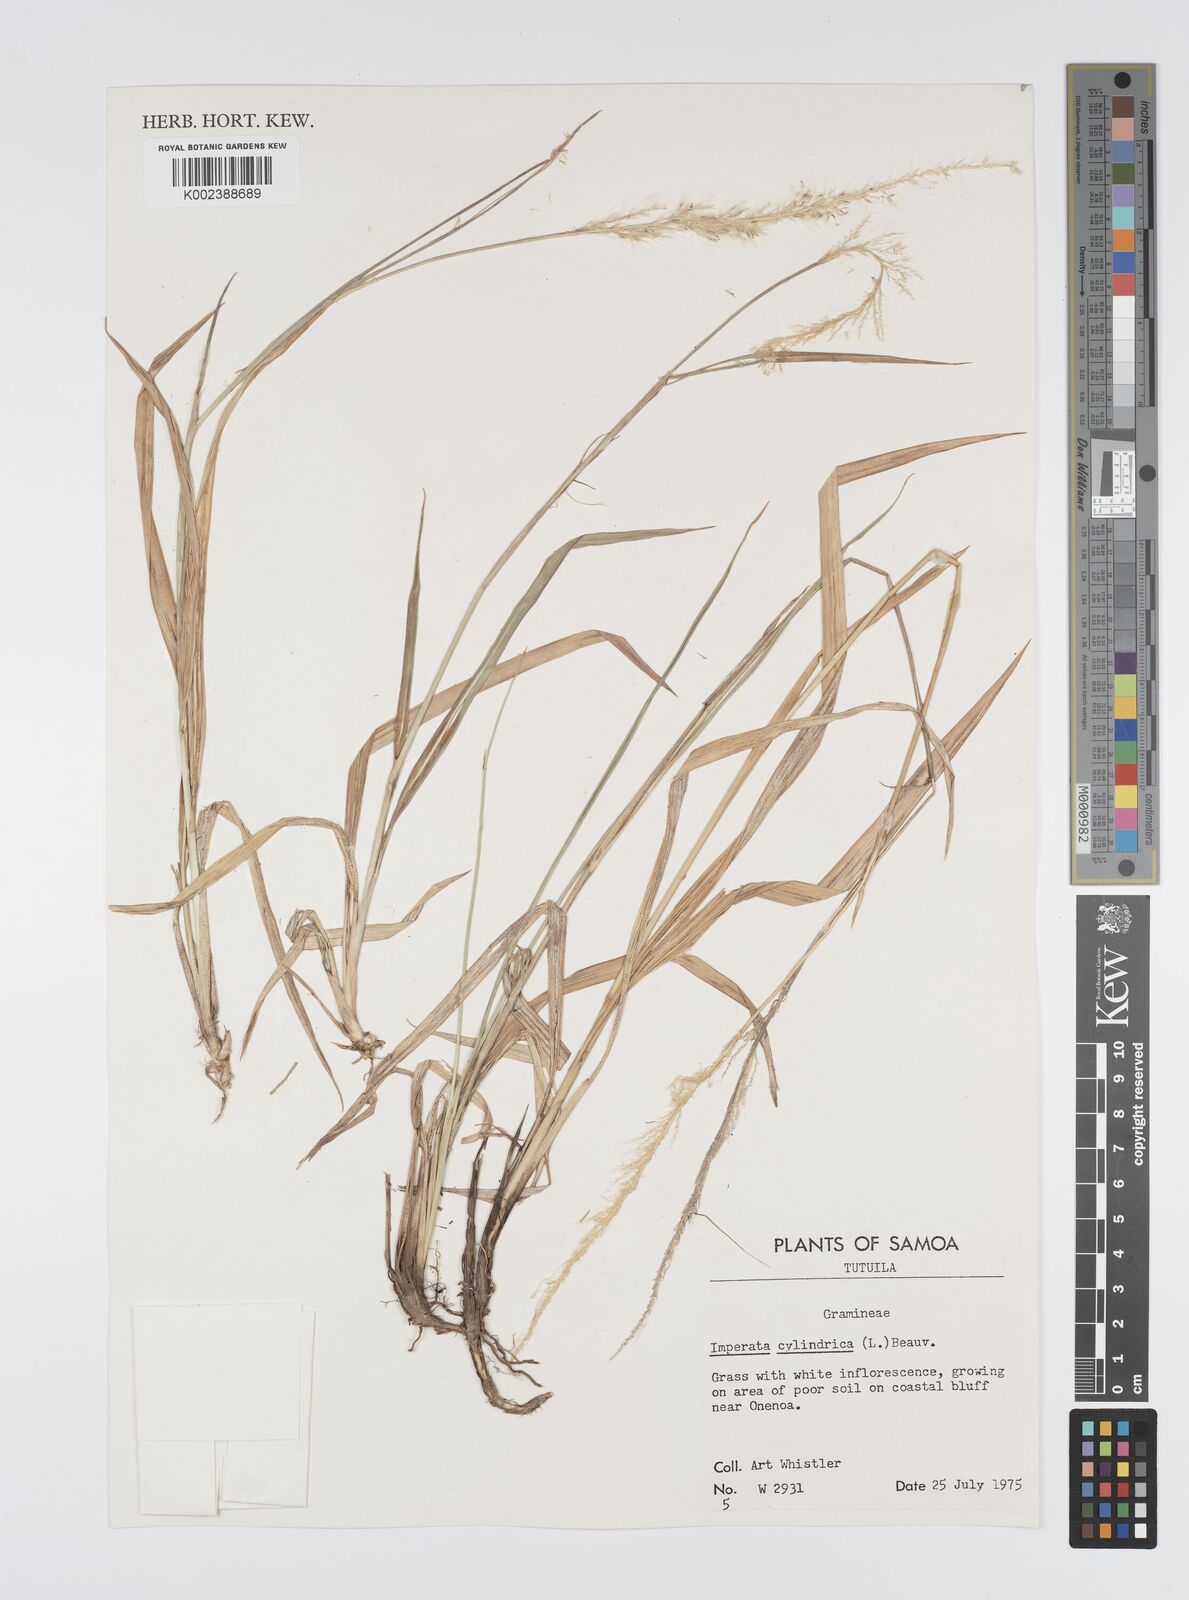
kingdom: Plantae
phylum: Tracheophyta
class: Liliopsida
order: Poales
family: Poaceae
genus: Imperata
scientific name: Imperata cylindrica
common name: Cogongrass
